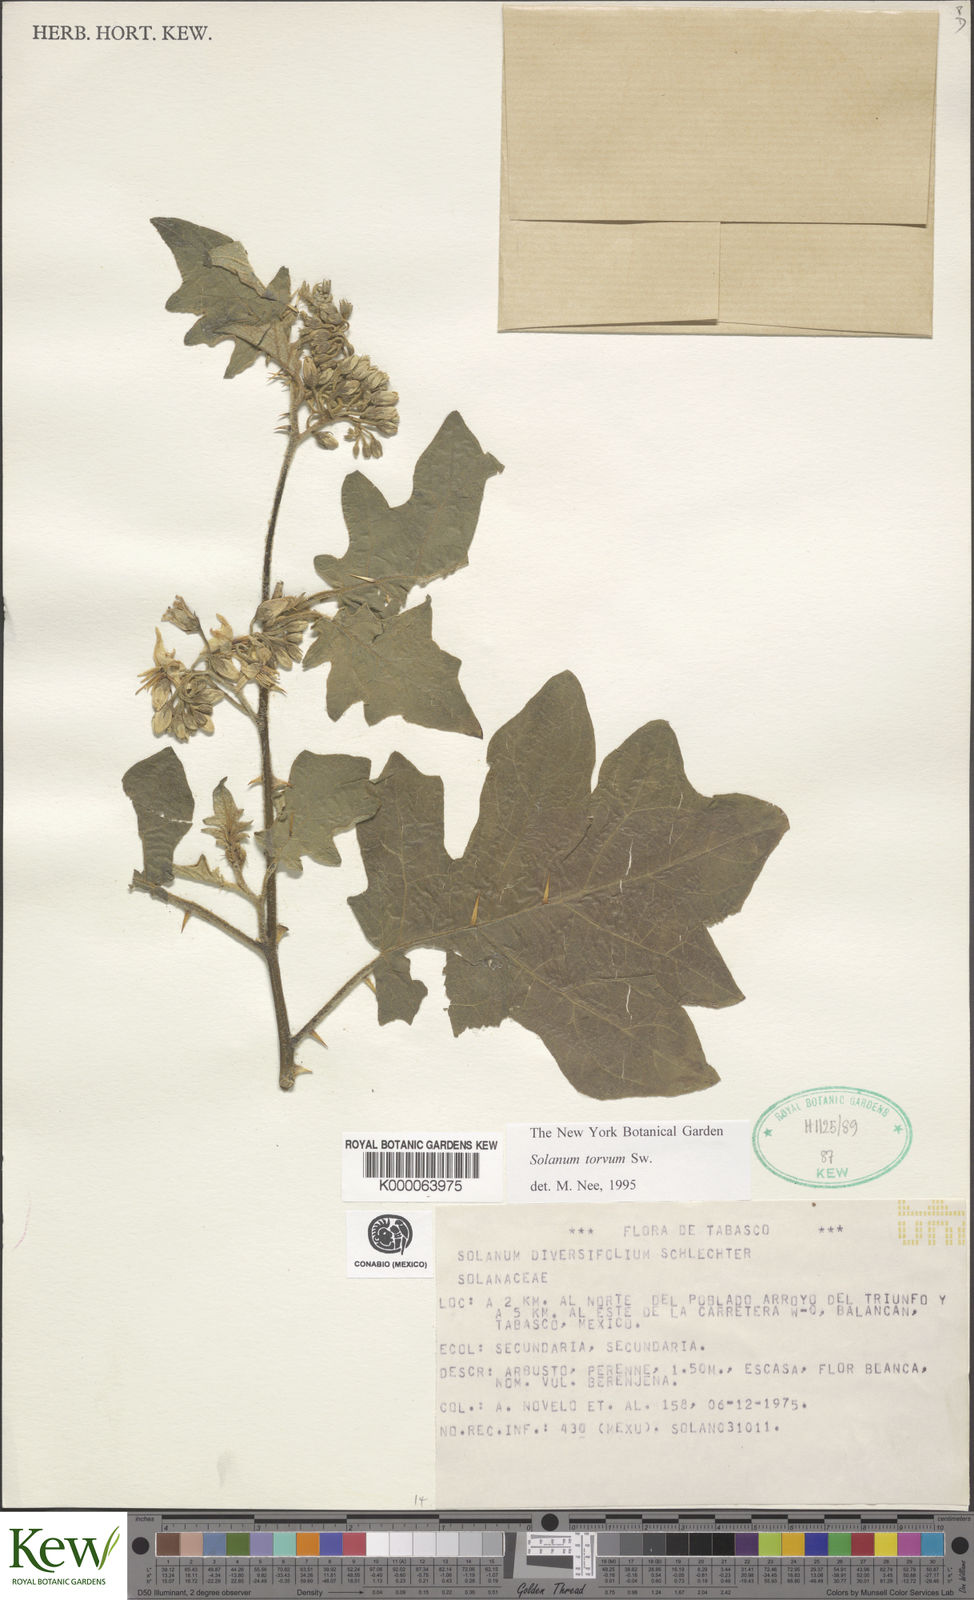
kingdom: Plantae
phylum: Tracheophyta
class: Magnoliopsida
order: Solanales
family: Solanaceae
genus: Solanum
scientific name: Solanum torvum
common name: Turkey berry
